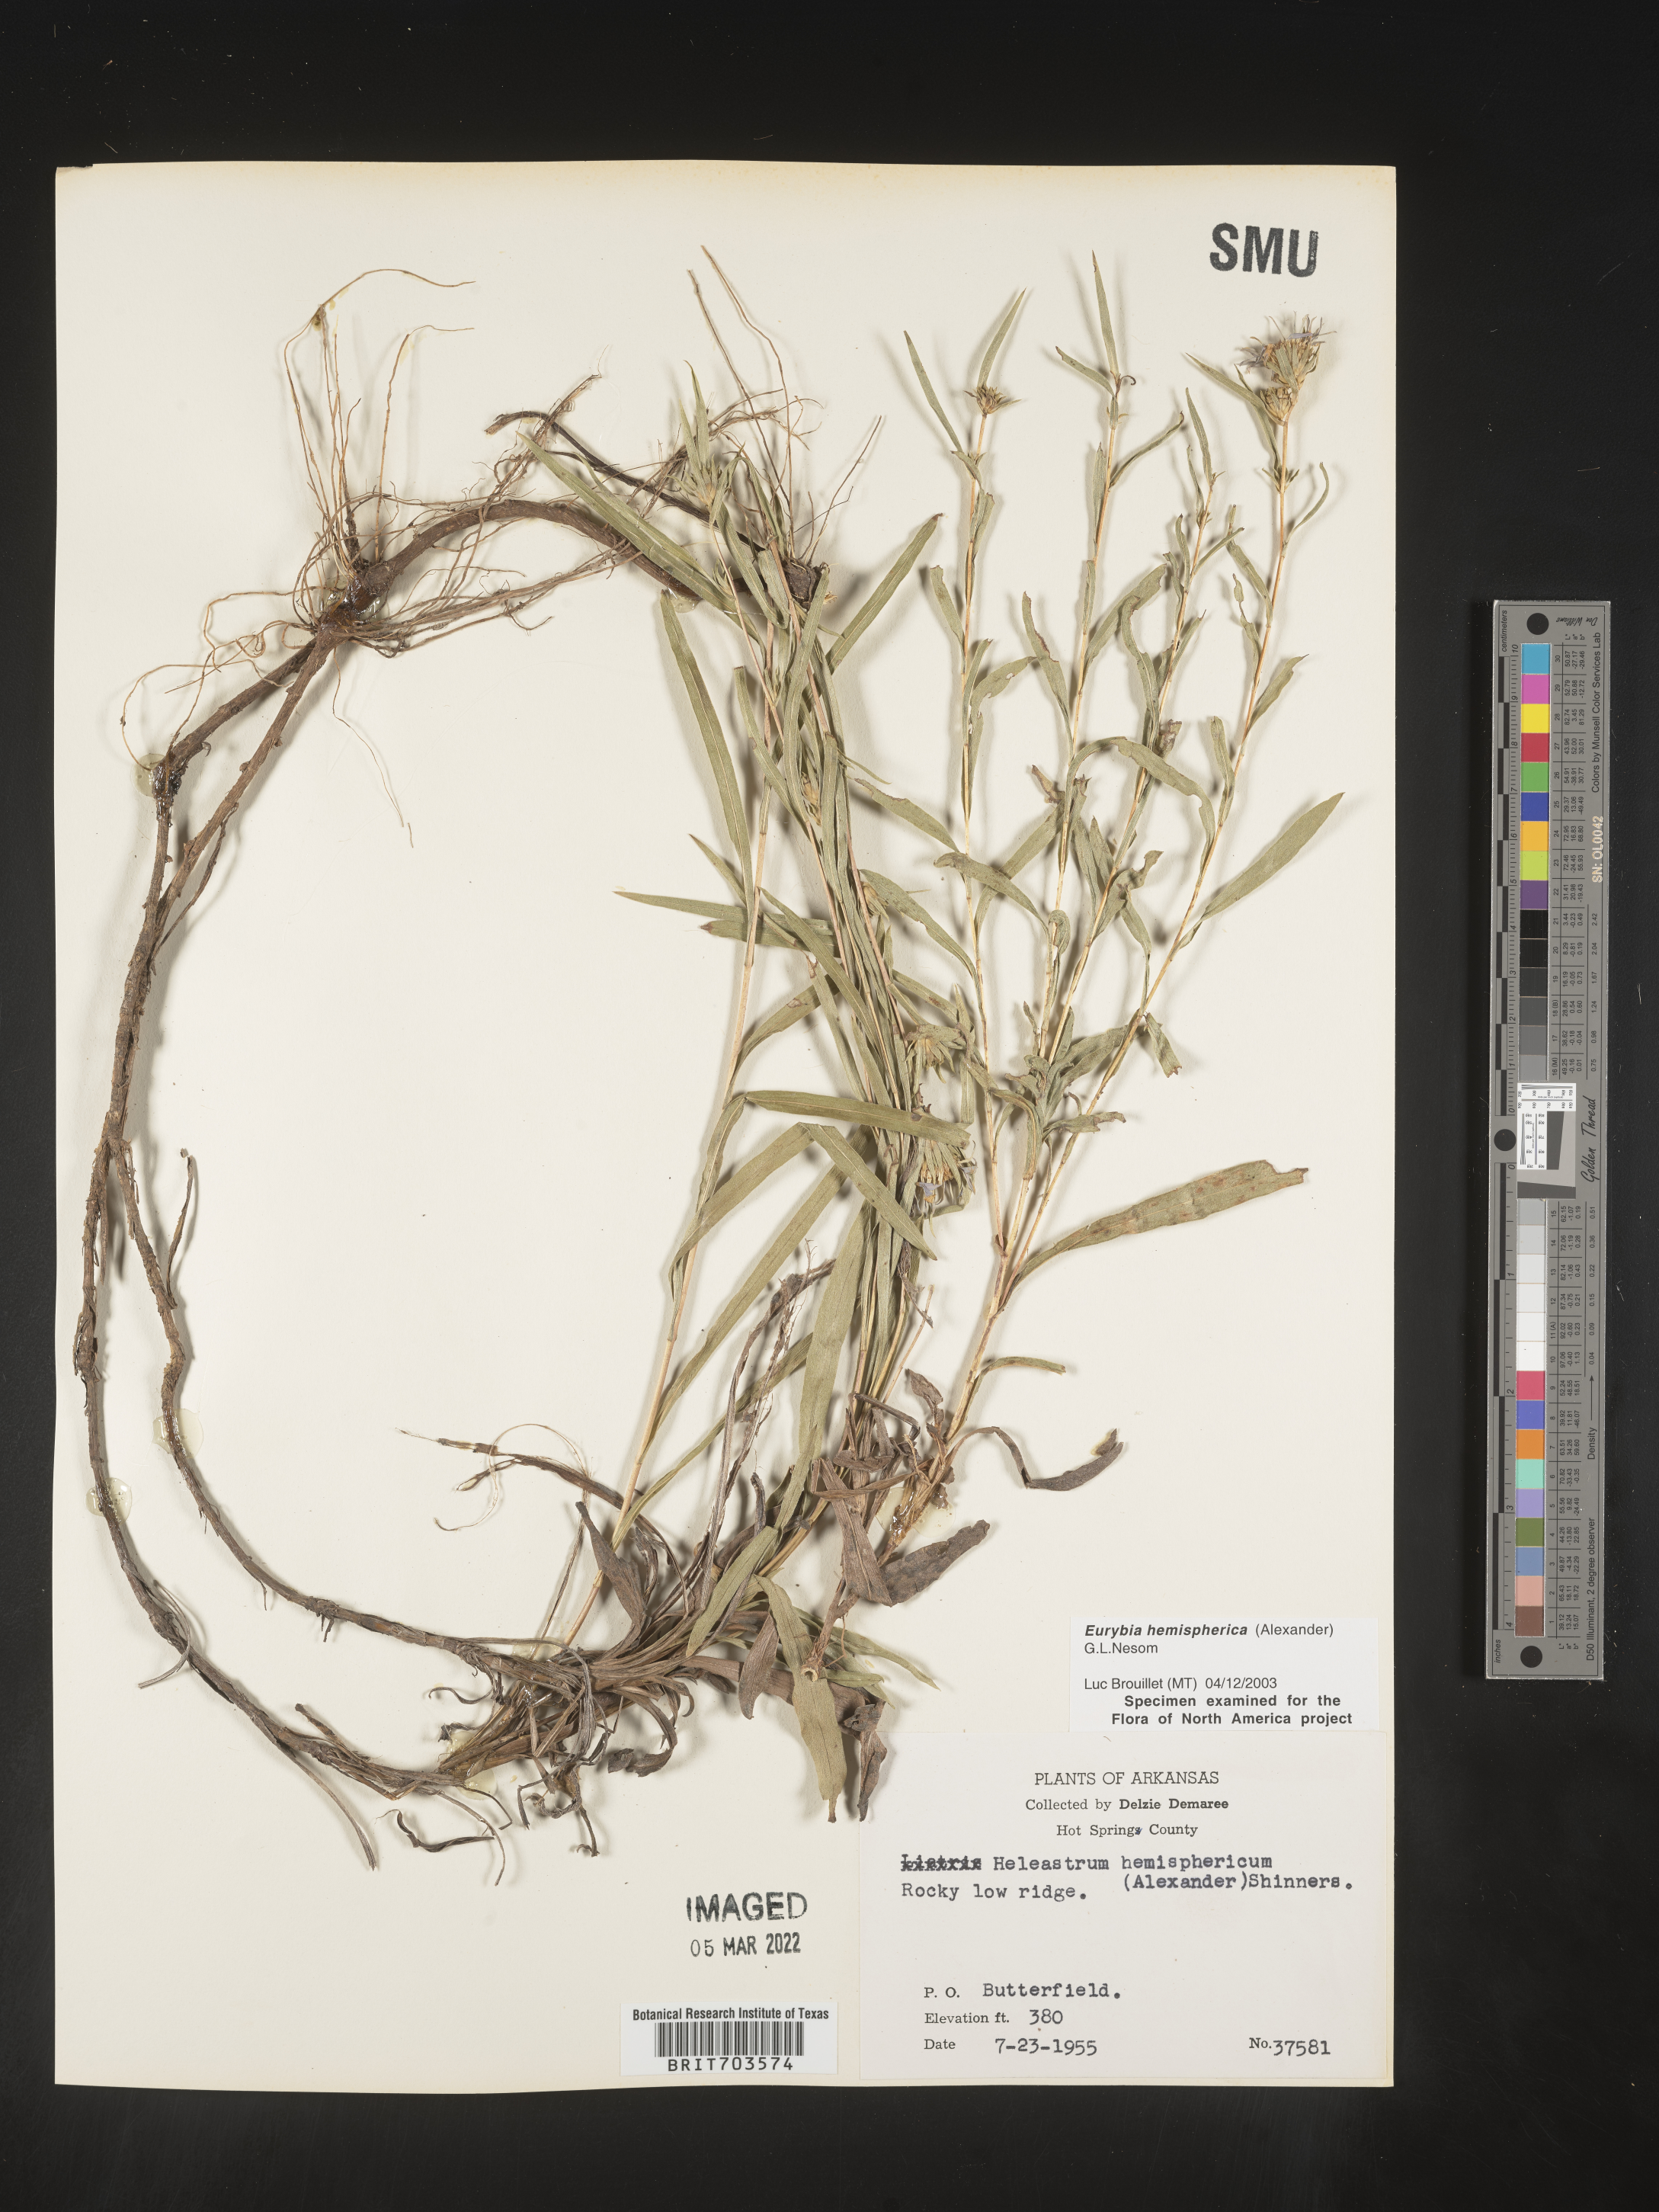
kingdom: Plantae
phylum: Tracheophyta
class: Magnoliopsida
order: Asterales
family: Asteraceae
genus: Eurybia
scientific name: Eurybia hemispherica
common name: Showy aster
